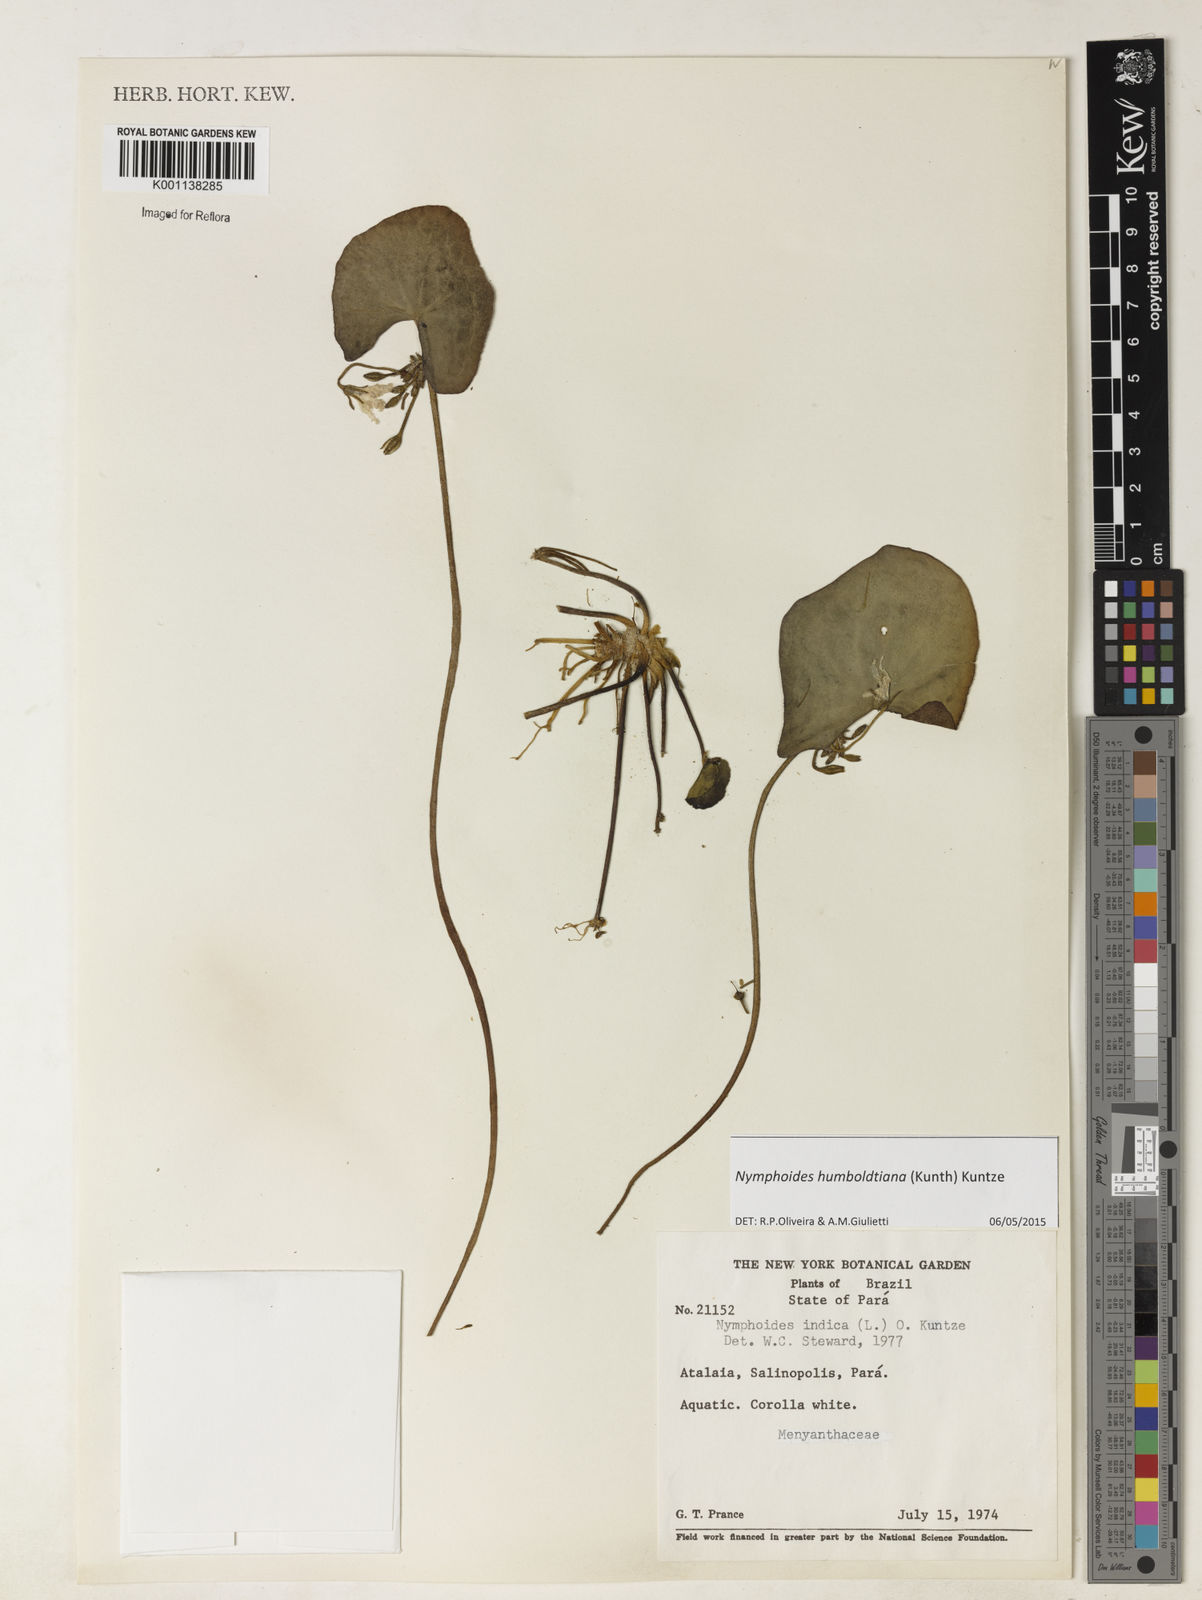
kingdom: Plantae
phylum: Tracheophyta
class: Magnoliopsida
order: Asterales
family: Menyanthaceae
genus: Nymphoides
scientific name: Nymphoides humboldtiana
